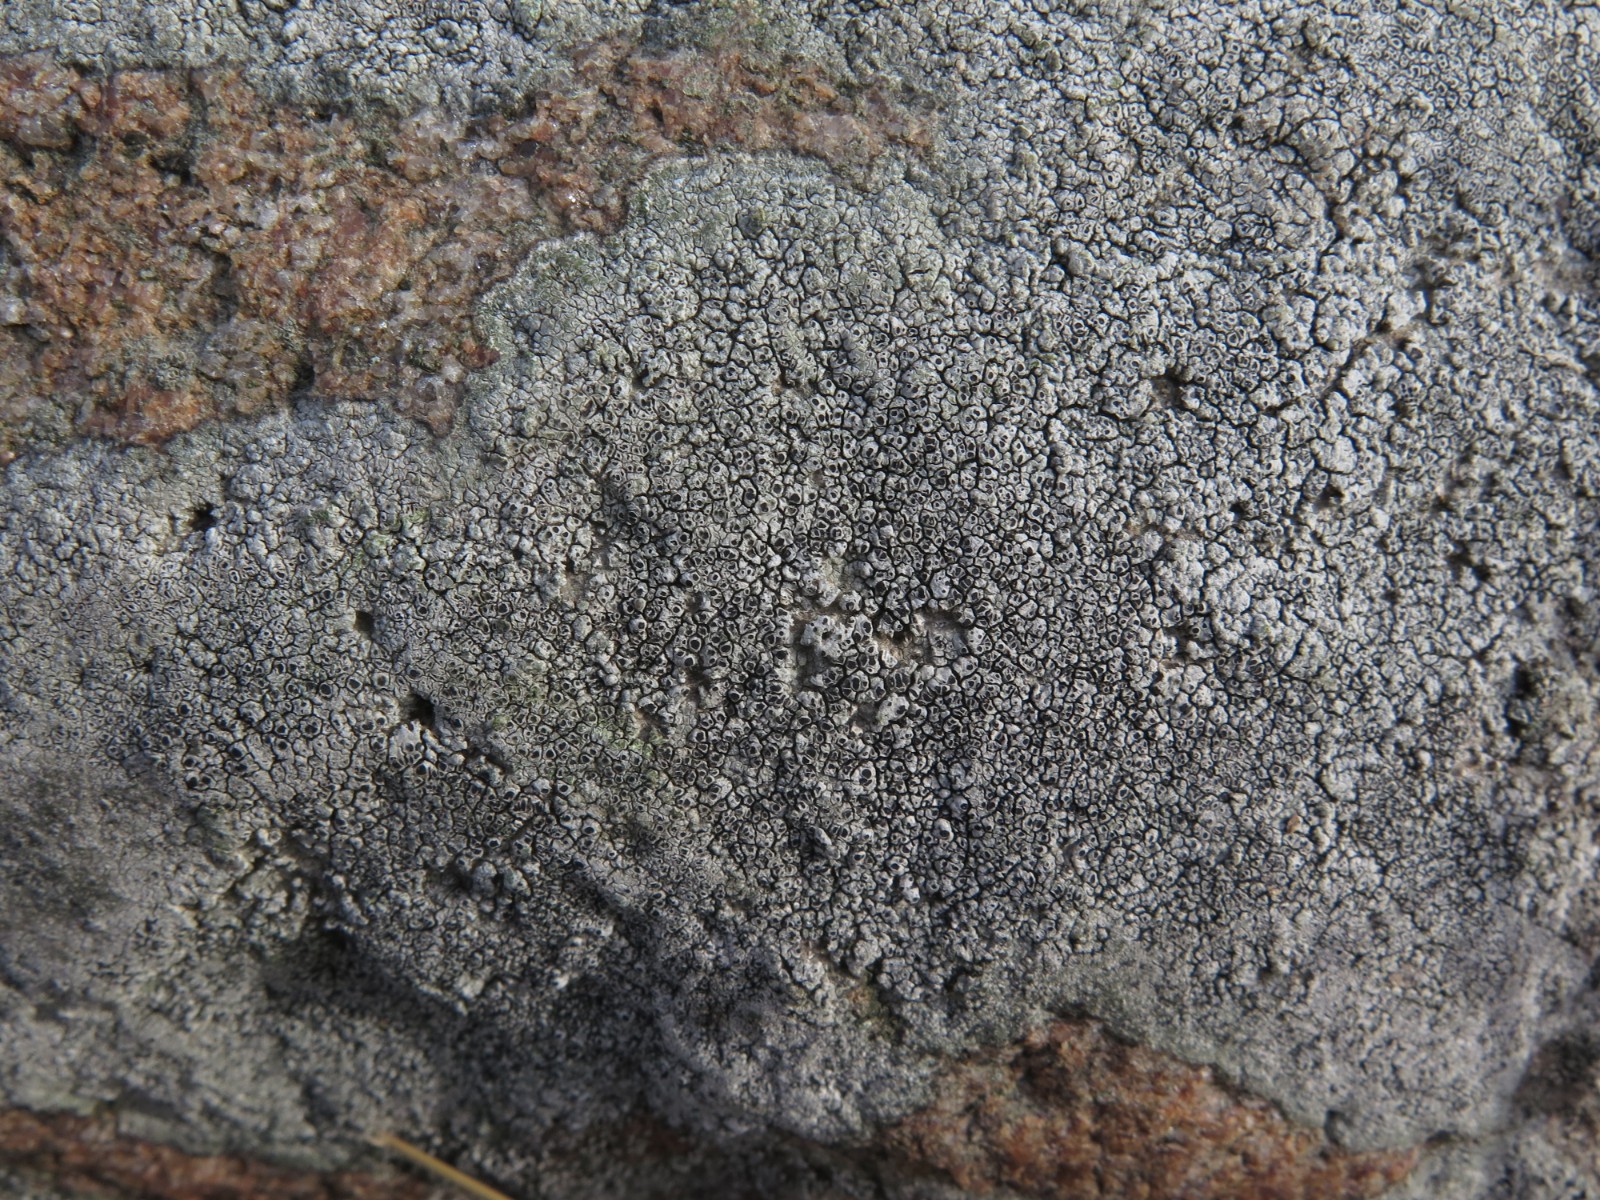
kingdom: Fungi
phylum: Ascomycota
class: Lecanoromycetes
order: Pertusariales
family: Megasporaceae
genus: Circinaria
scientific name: Circinaria caesiocinerea
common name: fuglestens-hulskivelav
